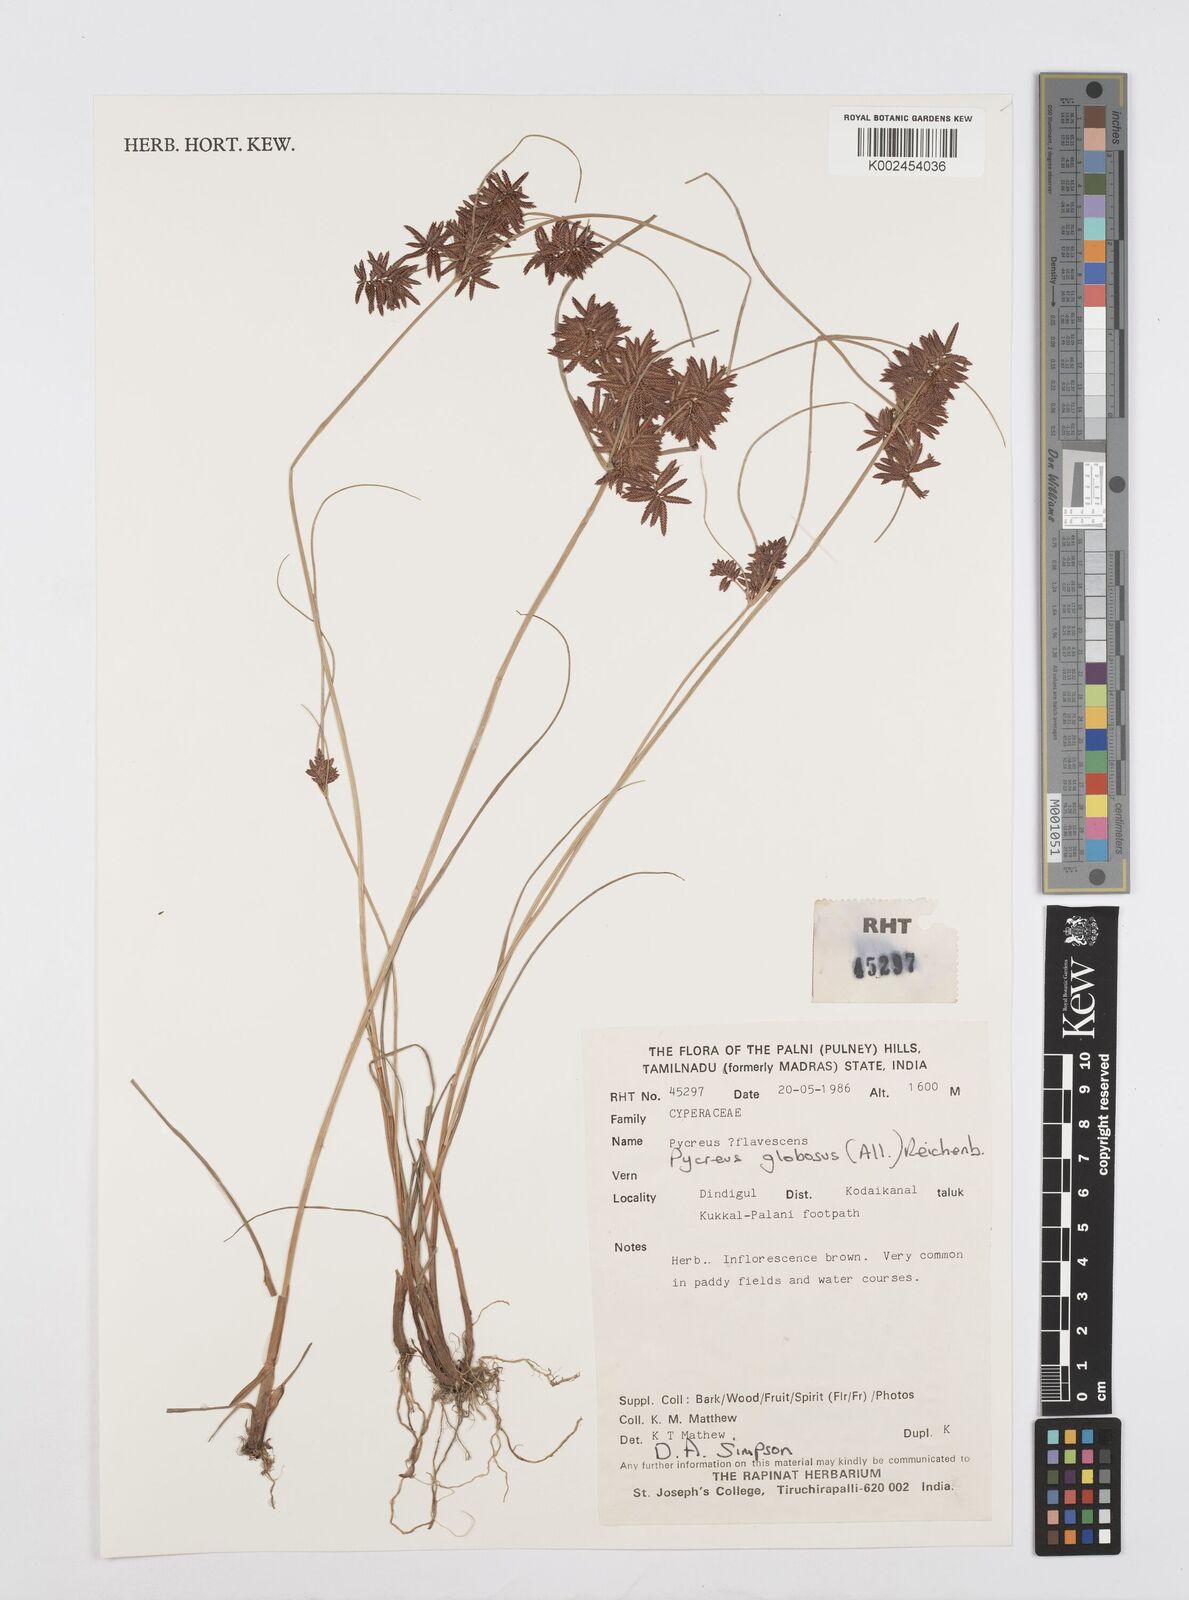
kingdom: Plantae
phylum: Tracheophyta
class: Liliopsida
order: Poales
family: Cyperaceae
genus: Cyperus
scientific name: Cyperus flavidus
